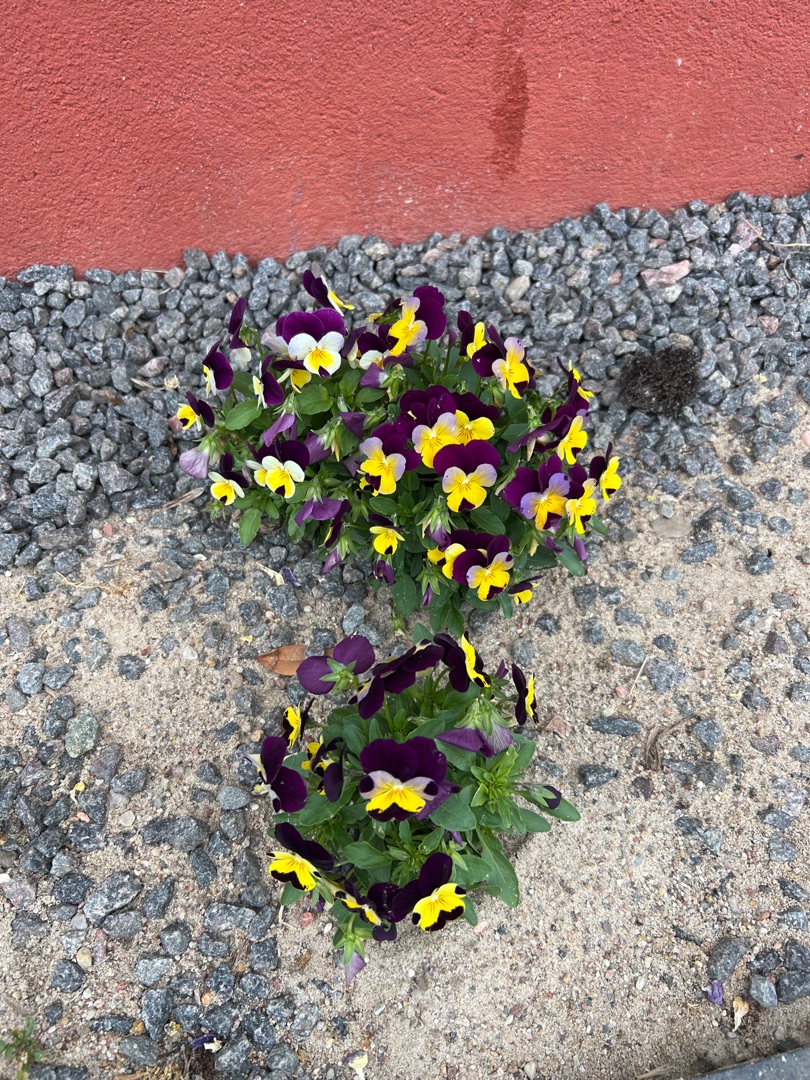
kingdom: Plantae
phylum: Tracheophyta
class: Magnoliopsida
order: Malpighiales
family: Violaceae
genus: Viola
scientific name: Viola wittrockiana
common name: Have-stedmoderblomst
